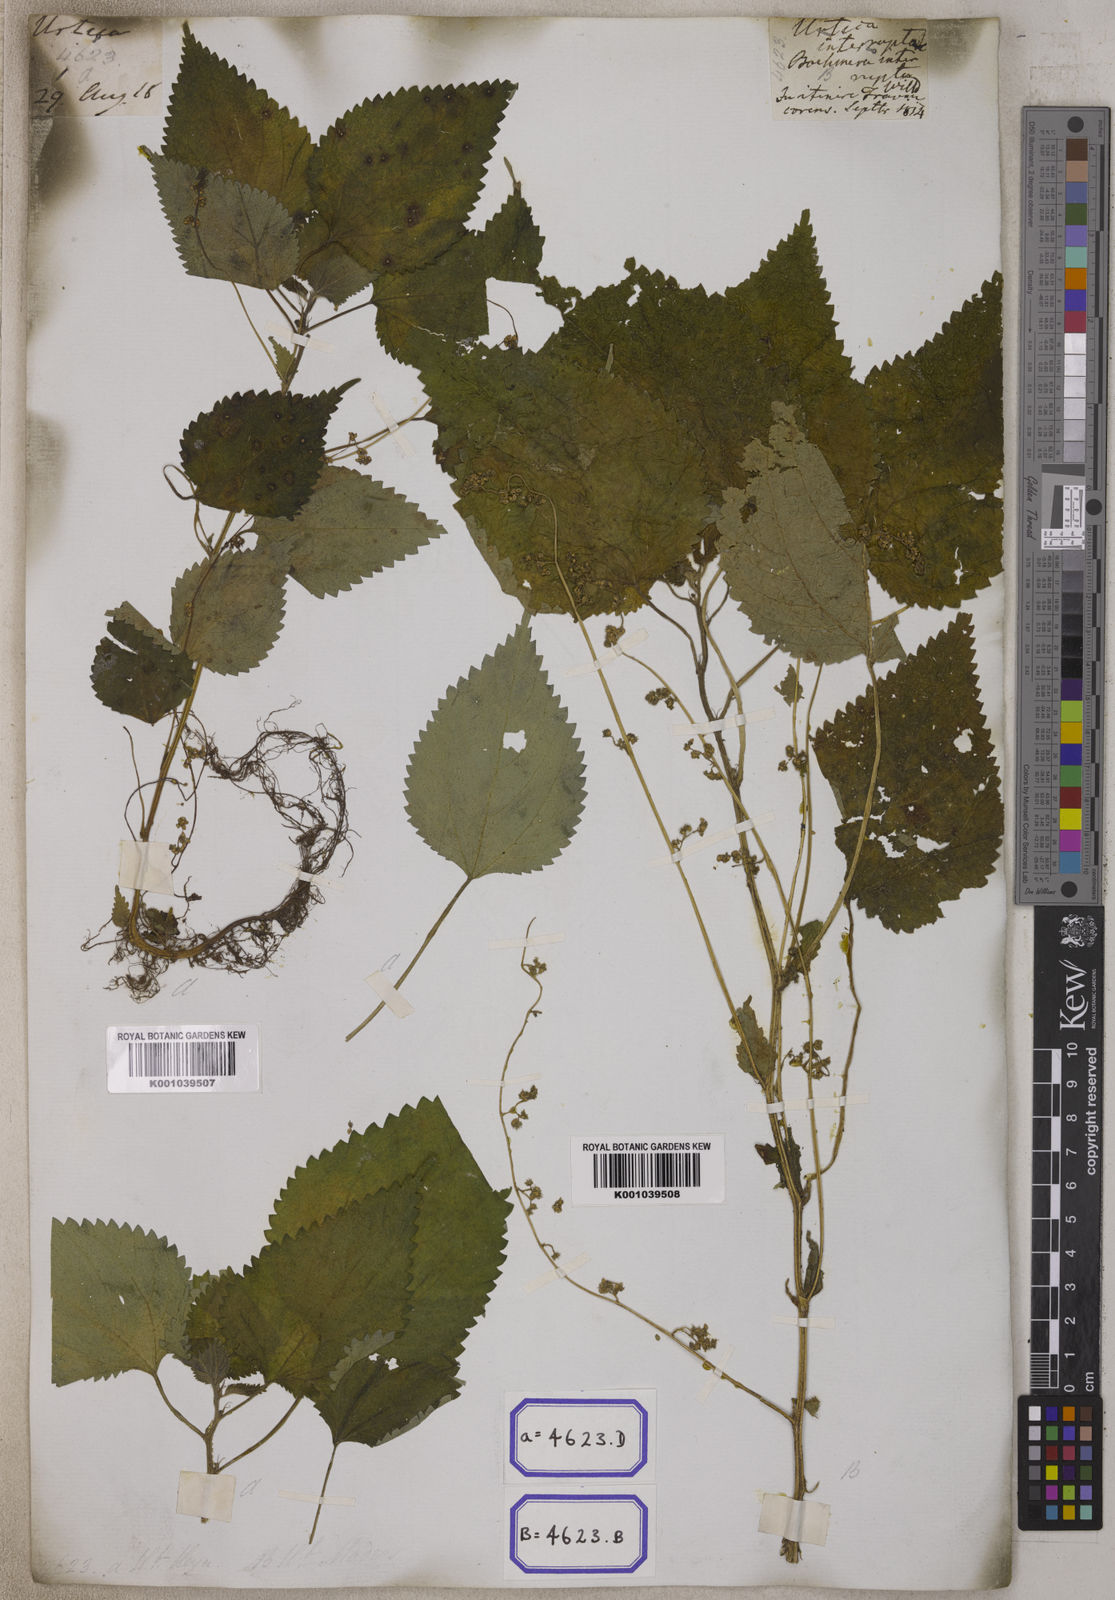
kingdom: Plantae
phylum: Tracheophyta
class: Magnoliopsida
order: Rosales
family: Urticaceae
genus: Laportea
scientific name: Laportea interrupta
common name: Hawaiian wood-nettle
